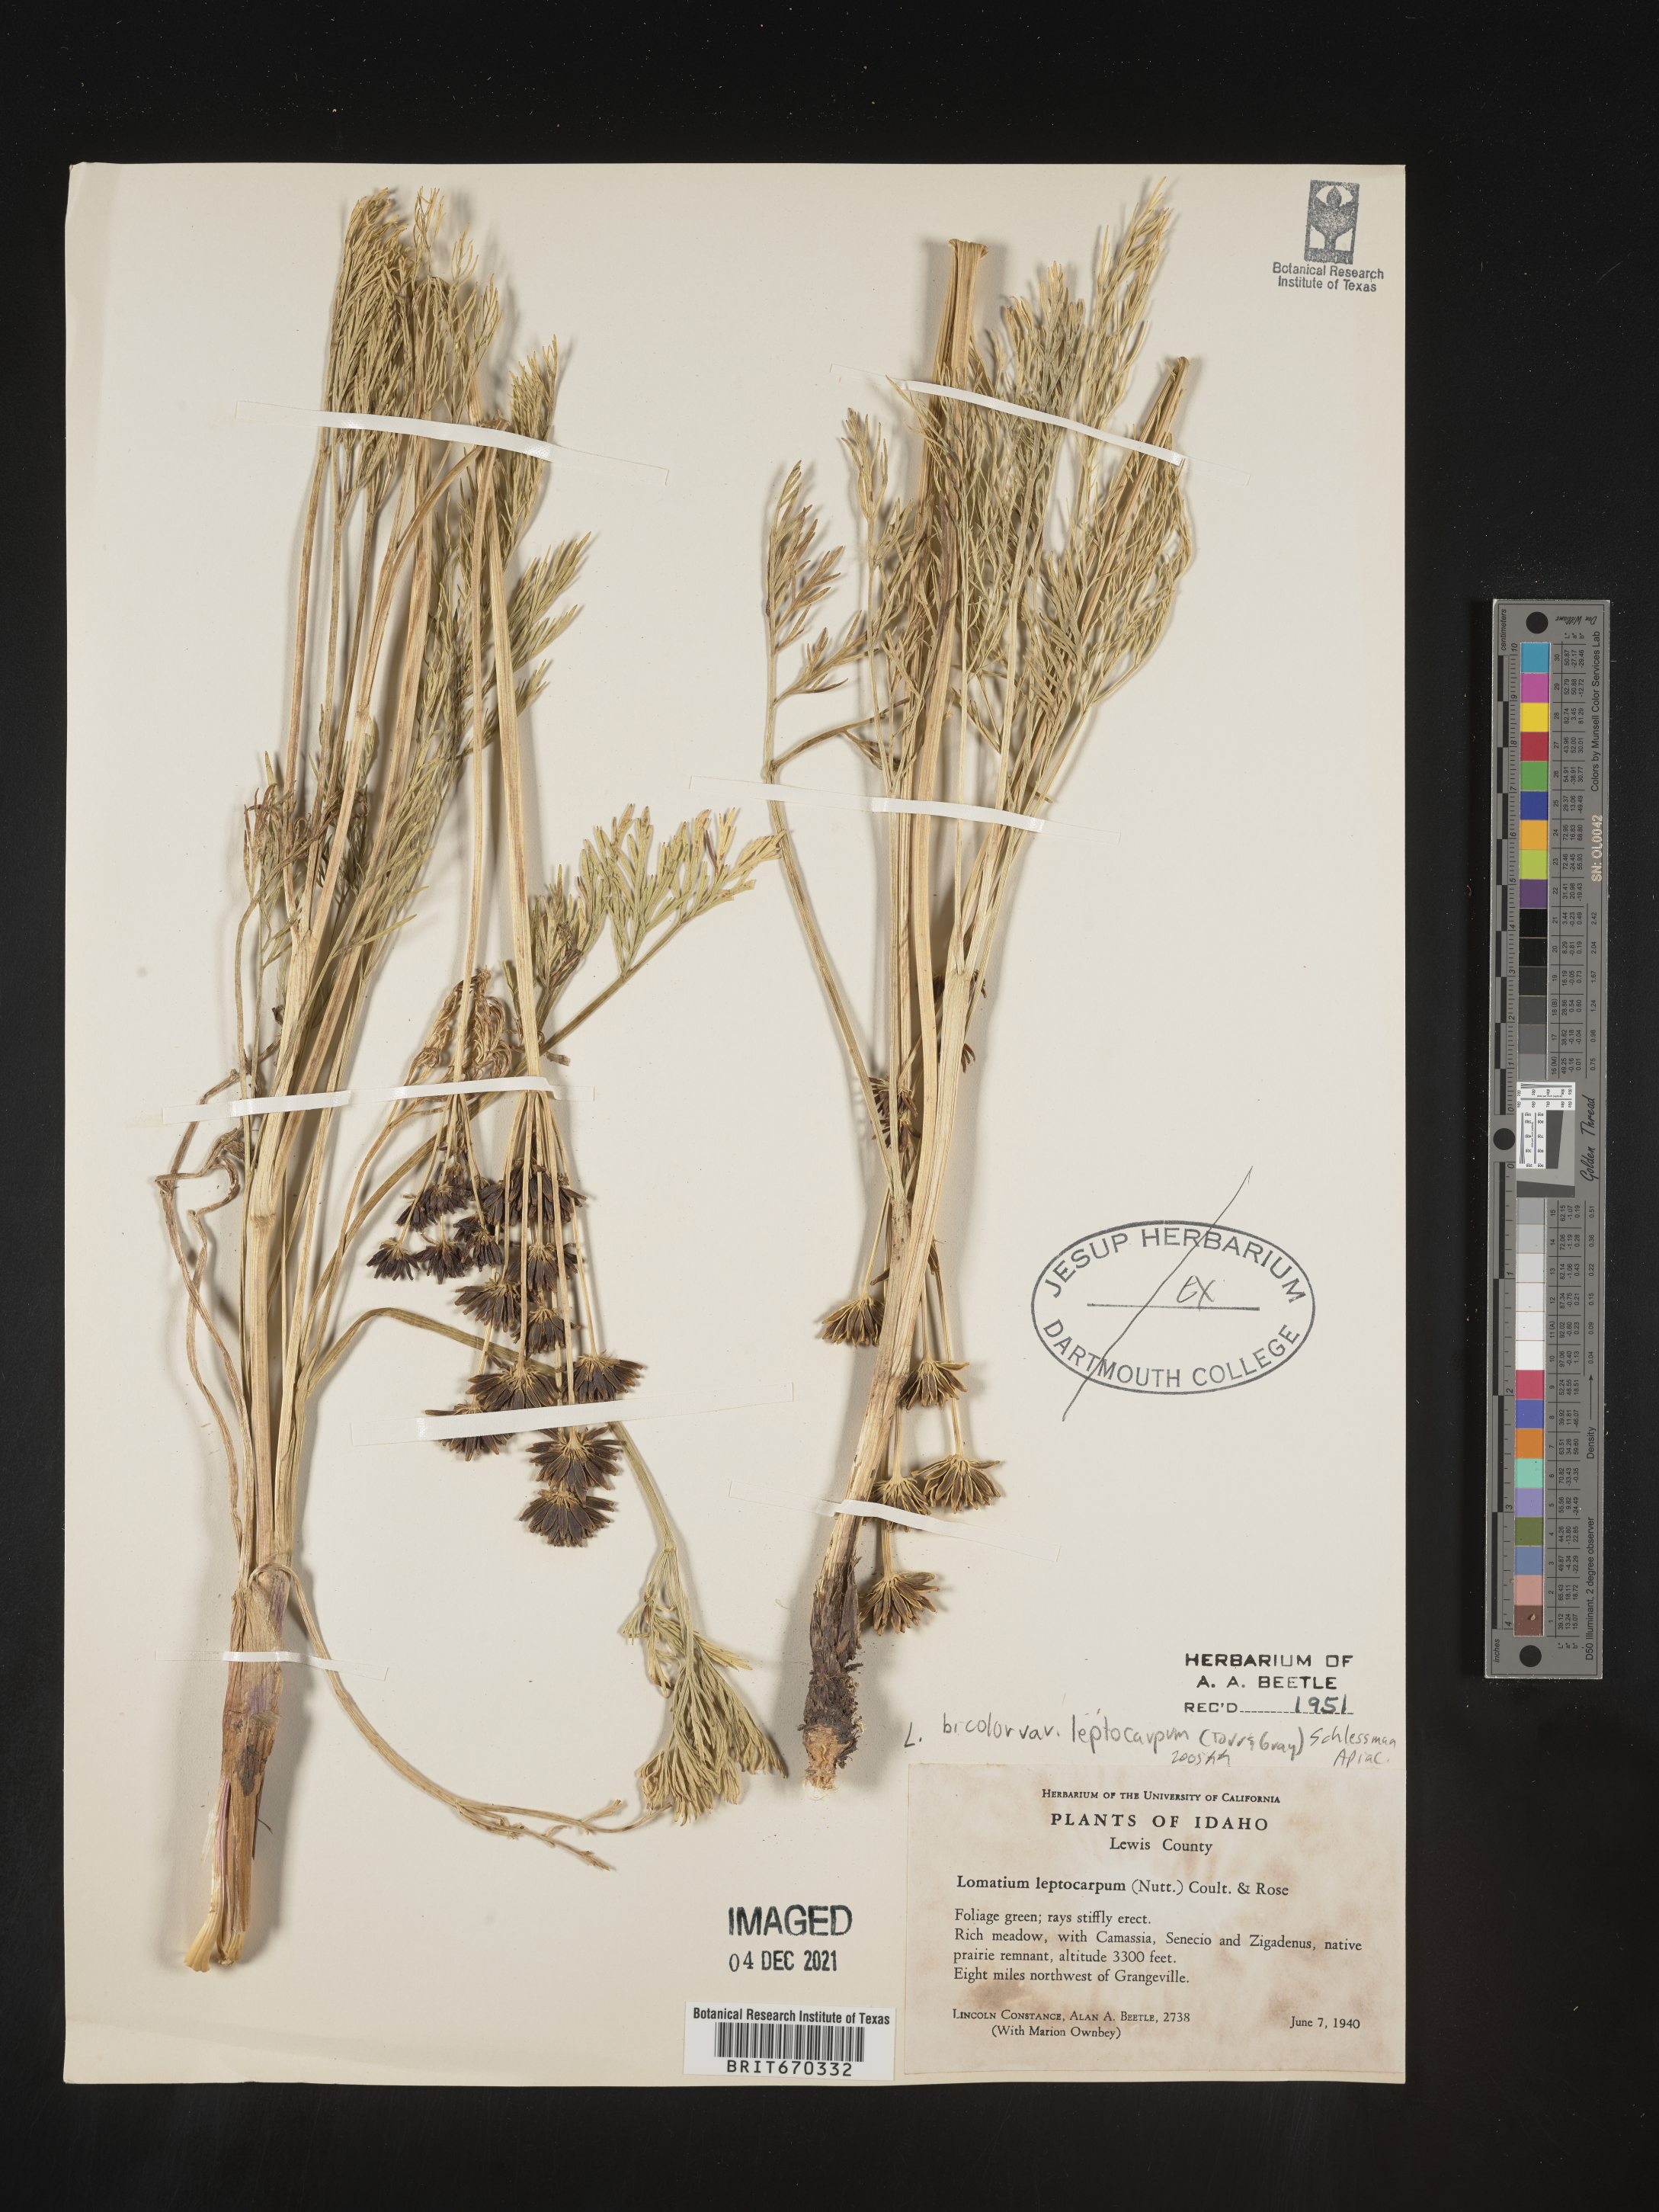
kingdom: Plantae
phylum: Tracheophyta
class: Magnoliopsida
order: Apiales
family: Apiaceae
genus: Lomatium
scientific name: Lomatium bicolor
